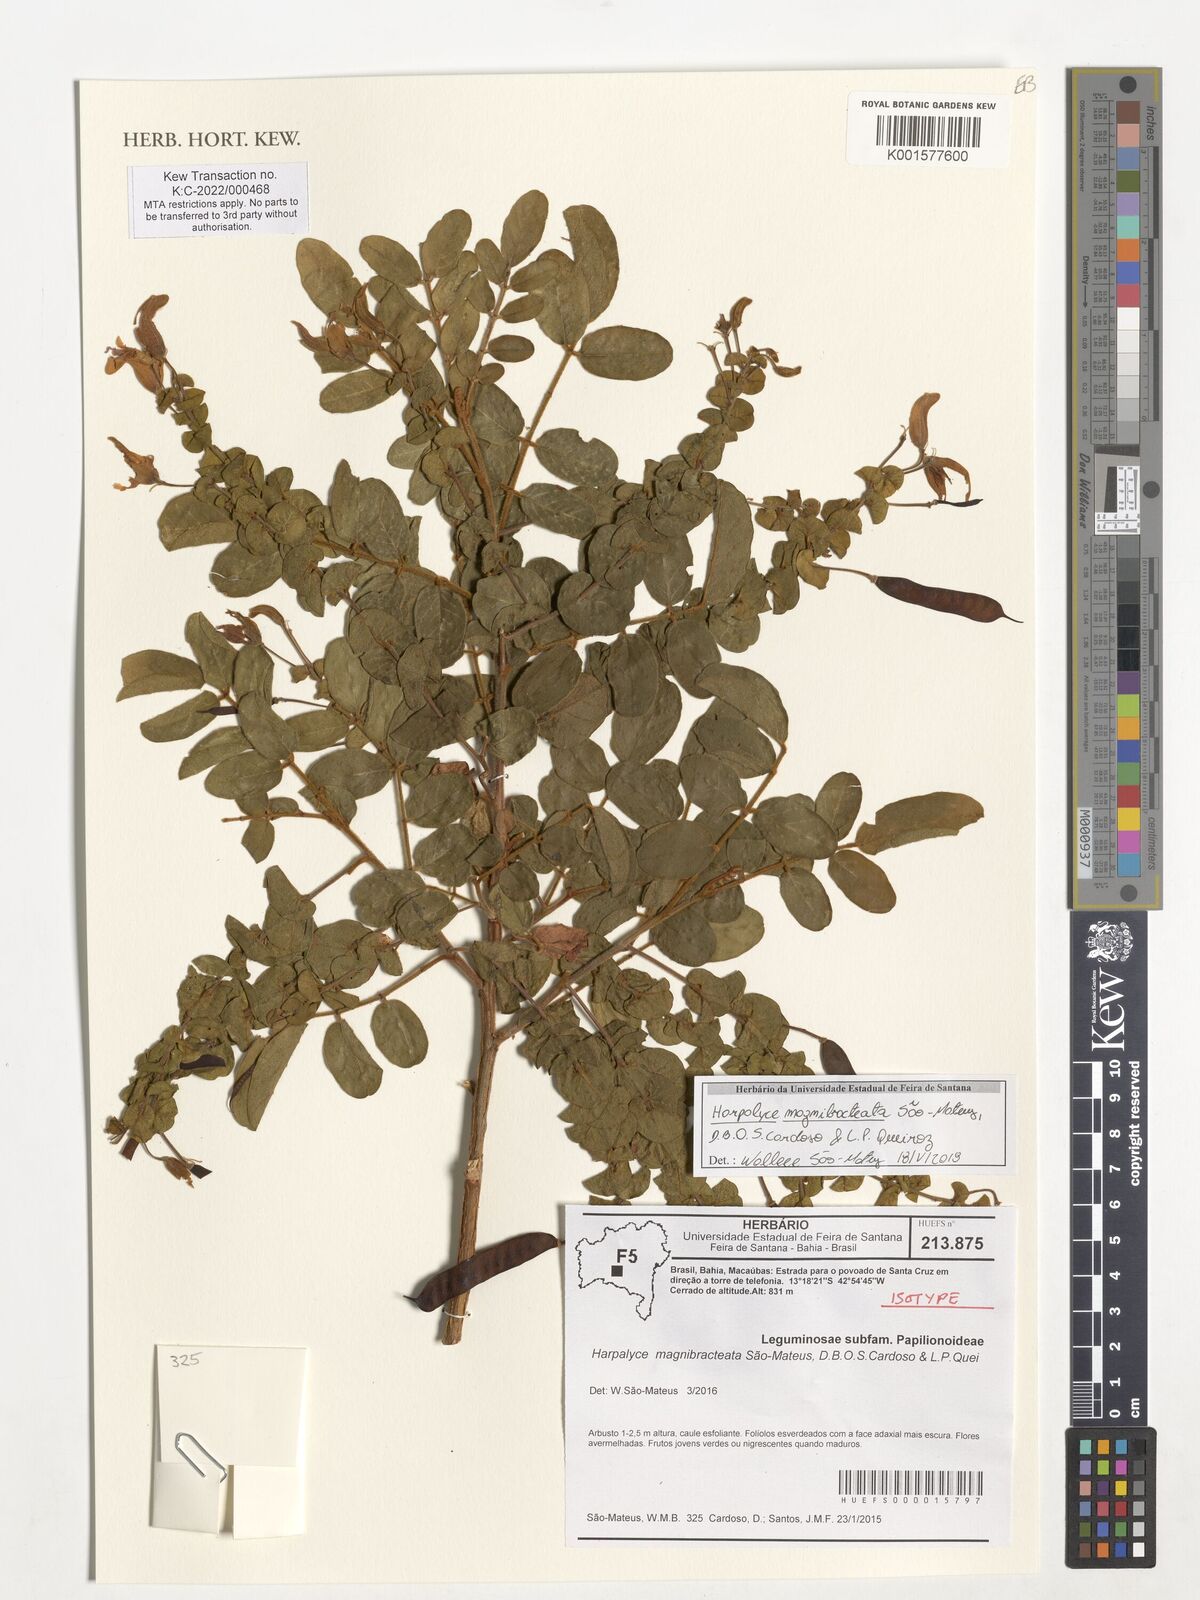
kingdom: Plantae
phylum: Tracheophyta
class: Magnoliopsida
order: Fabales
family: Fabaceae
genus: Harpalyce
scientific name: Harpalyce magnibracteata
